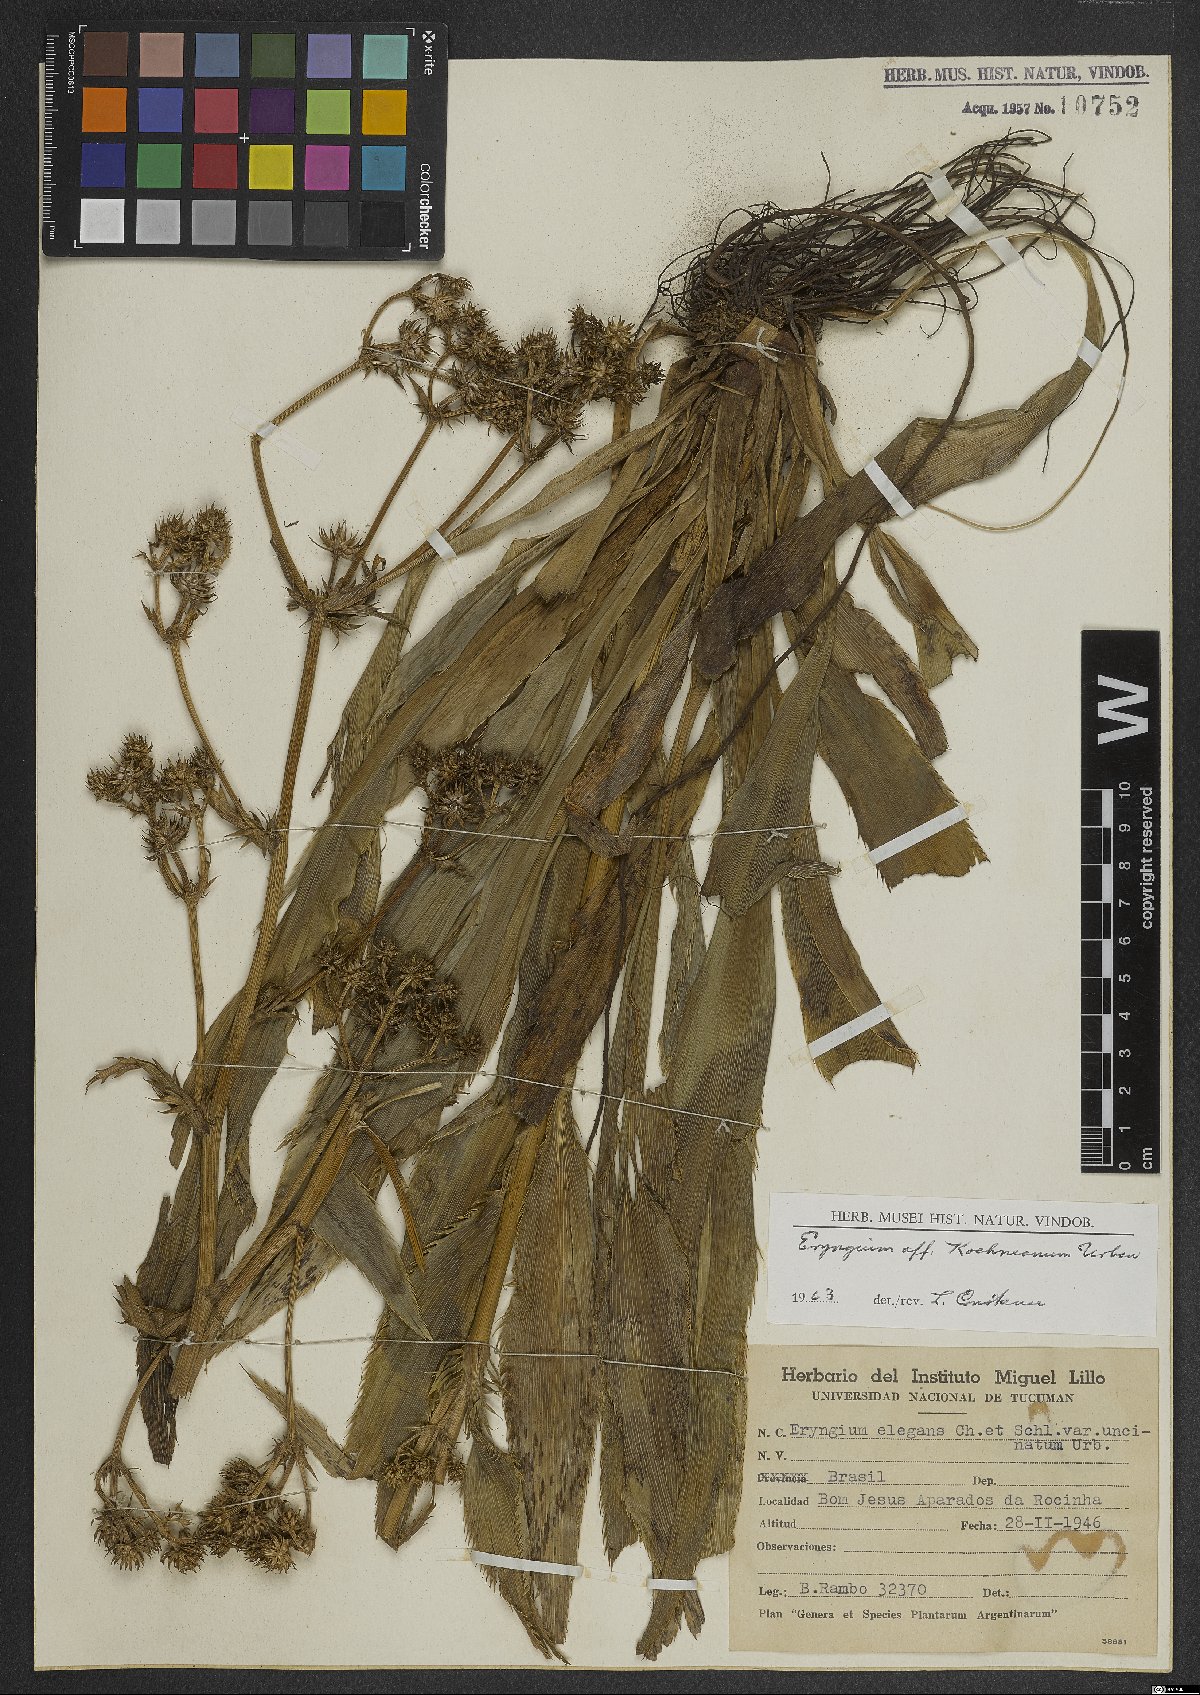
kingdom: Plantae
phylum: Tracheophyta
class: Magnoliopsida
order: Apiales
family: Apiaceae
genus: Eryngium
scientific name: Eryngium koehneanum
